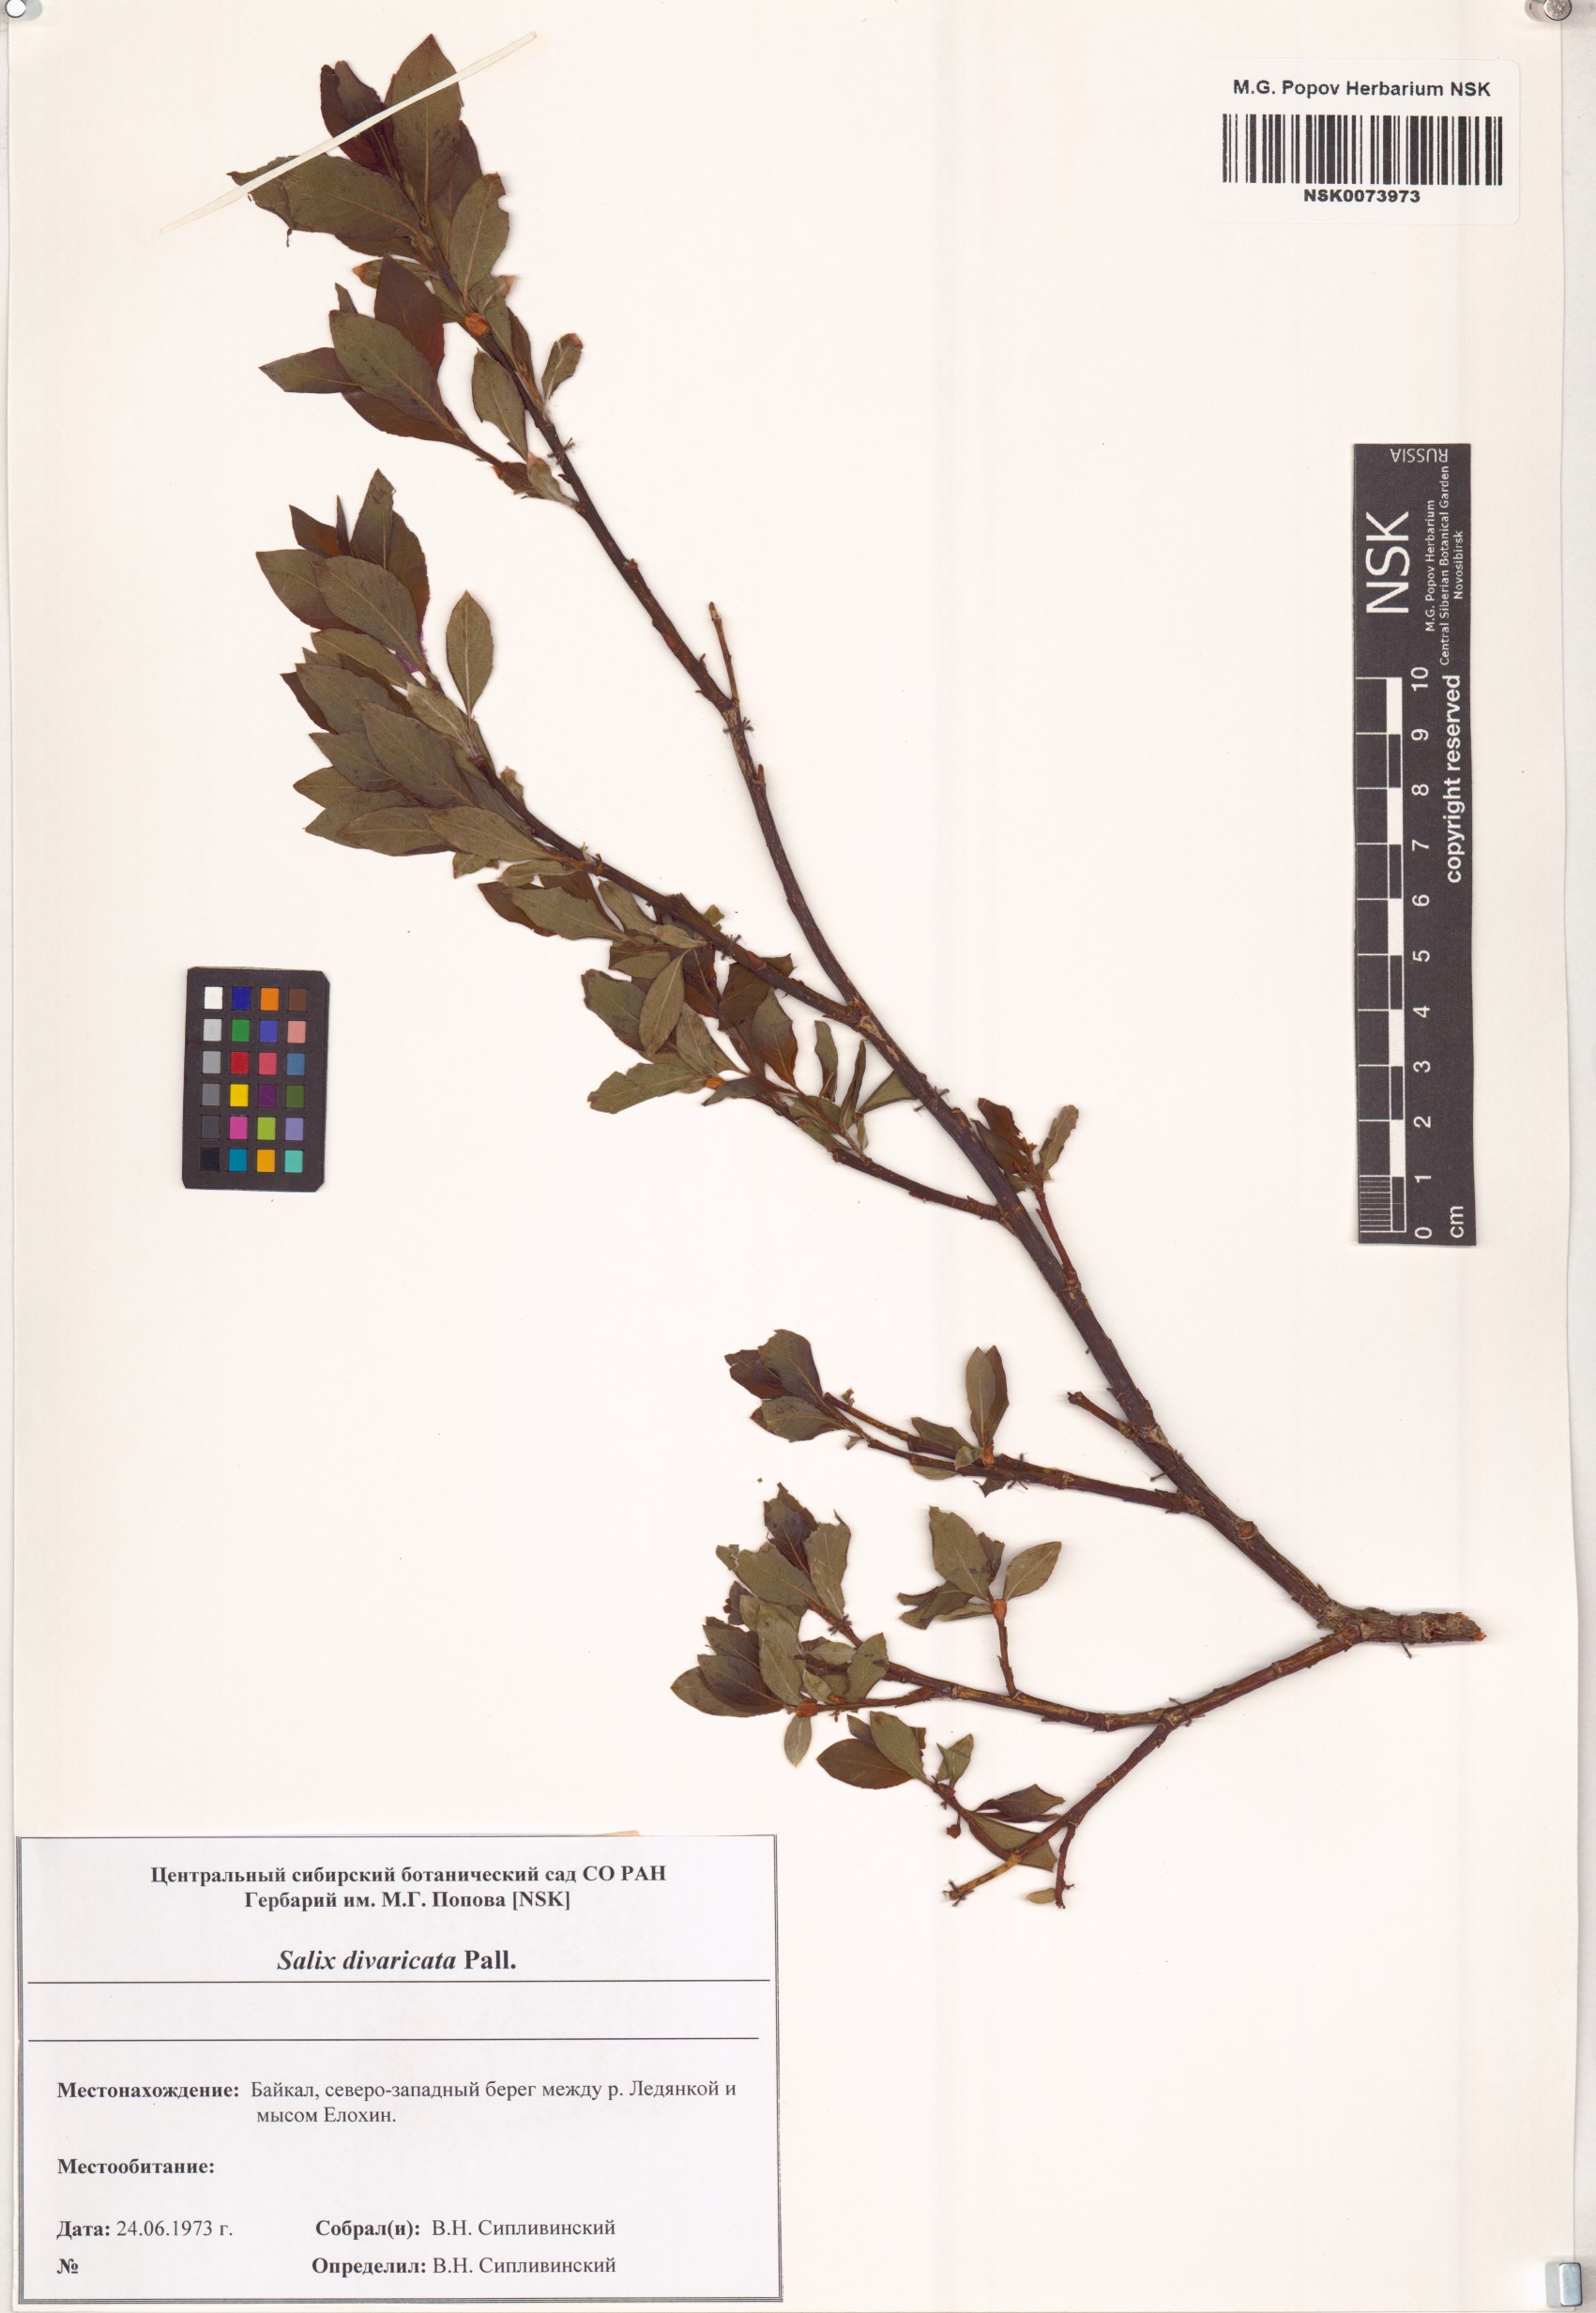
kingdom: Plantae
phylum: Tracheophyta
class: Magnoliopsida
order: Malpighiales
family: Salicaceae
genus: Salix
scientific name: Salix divaricata
